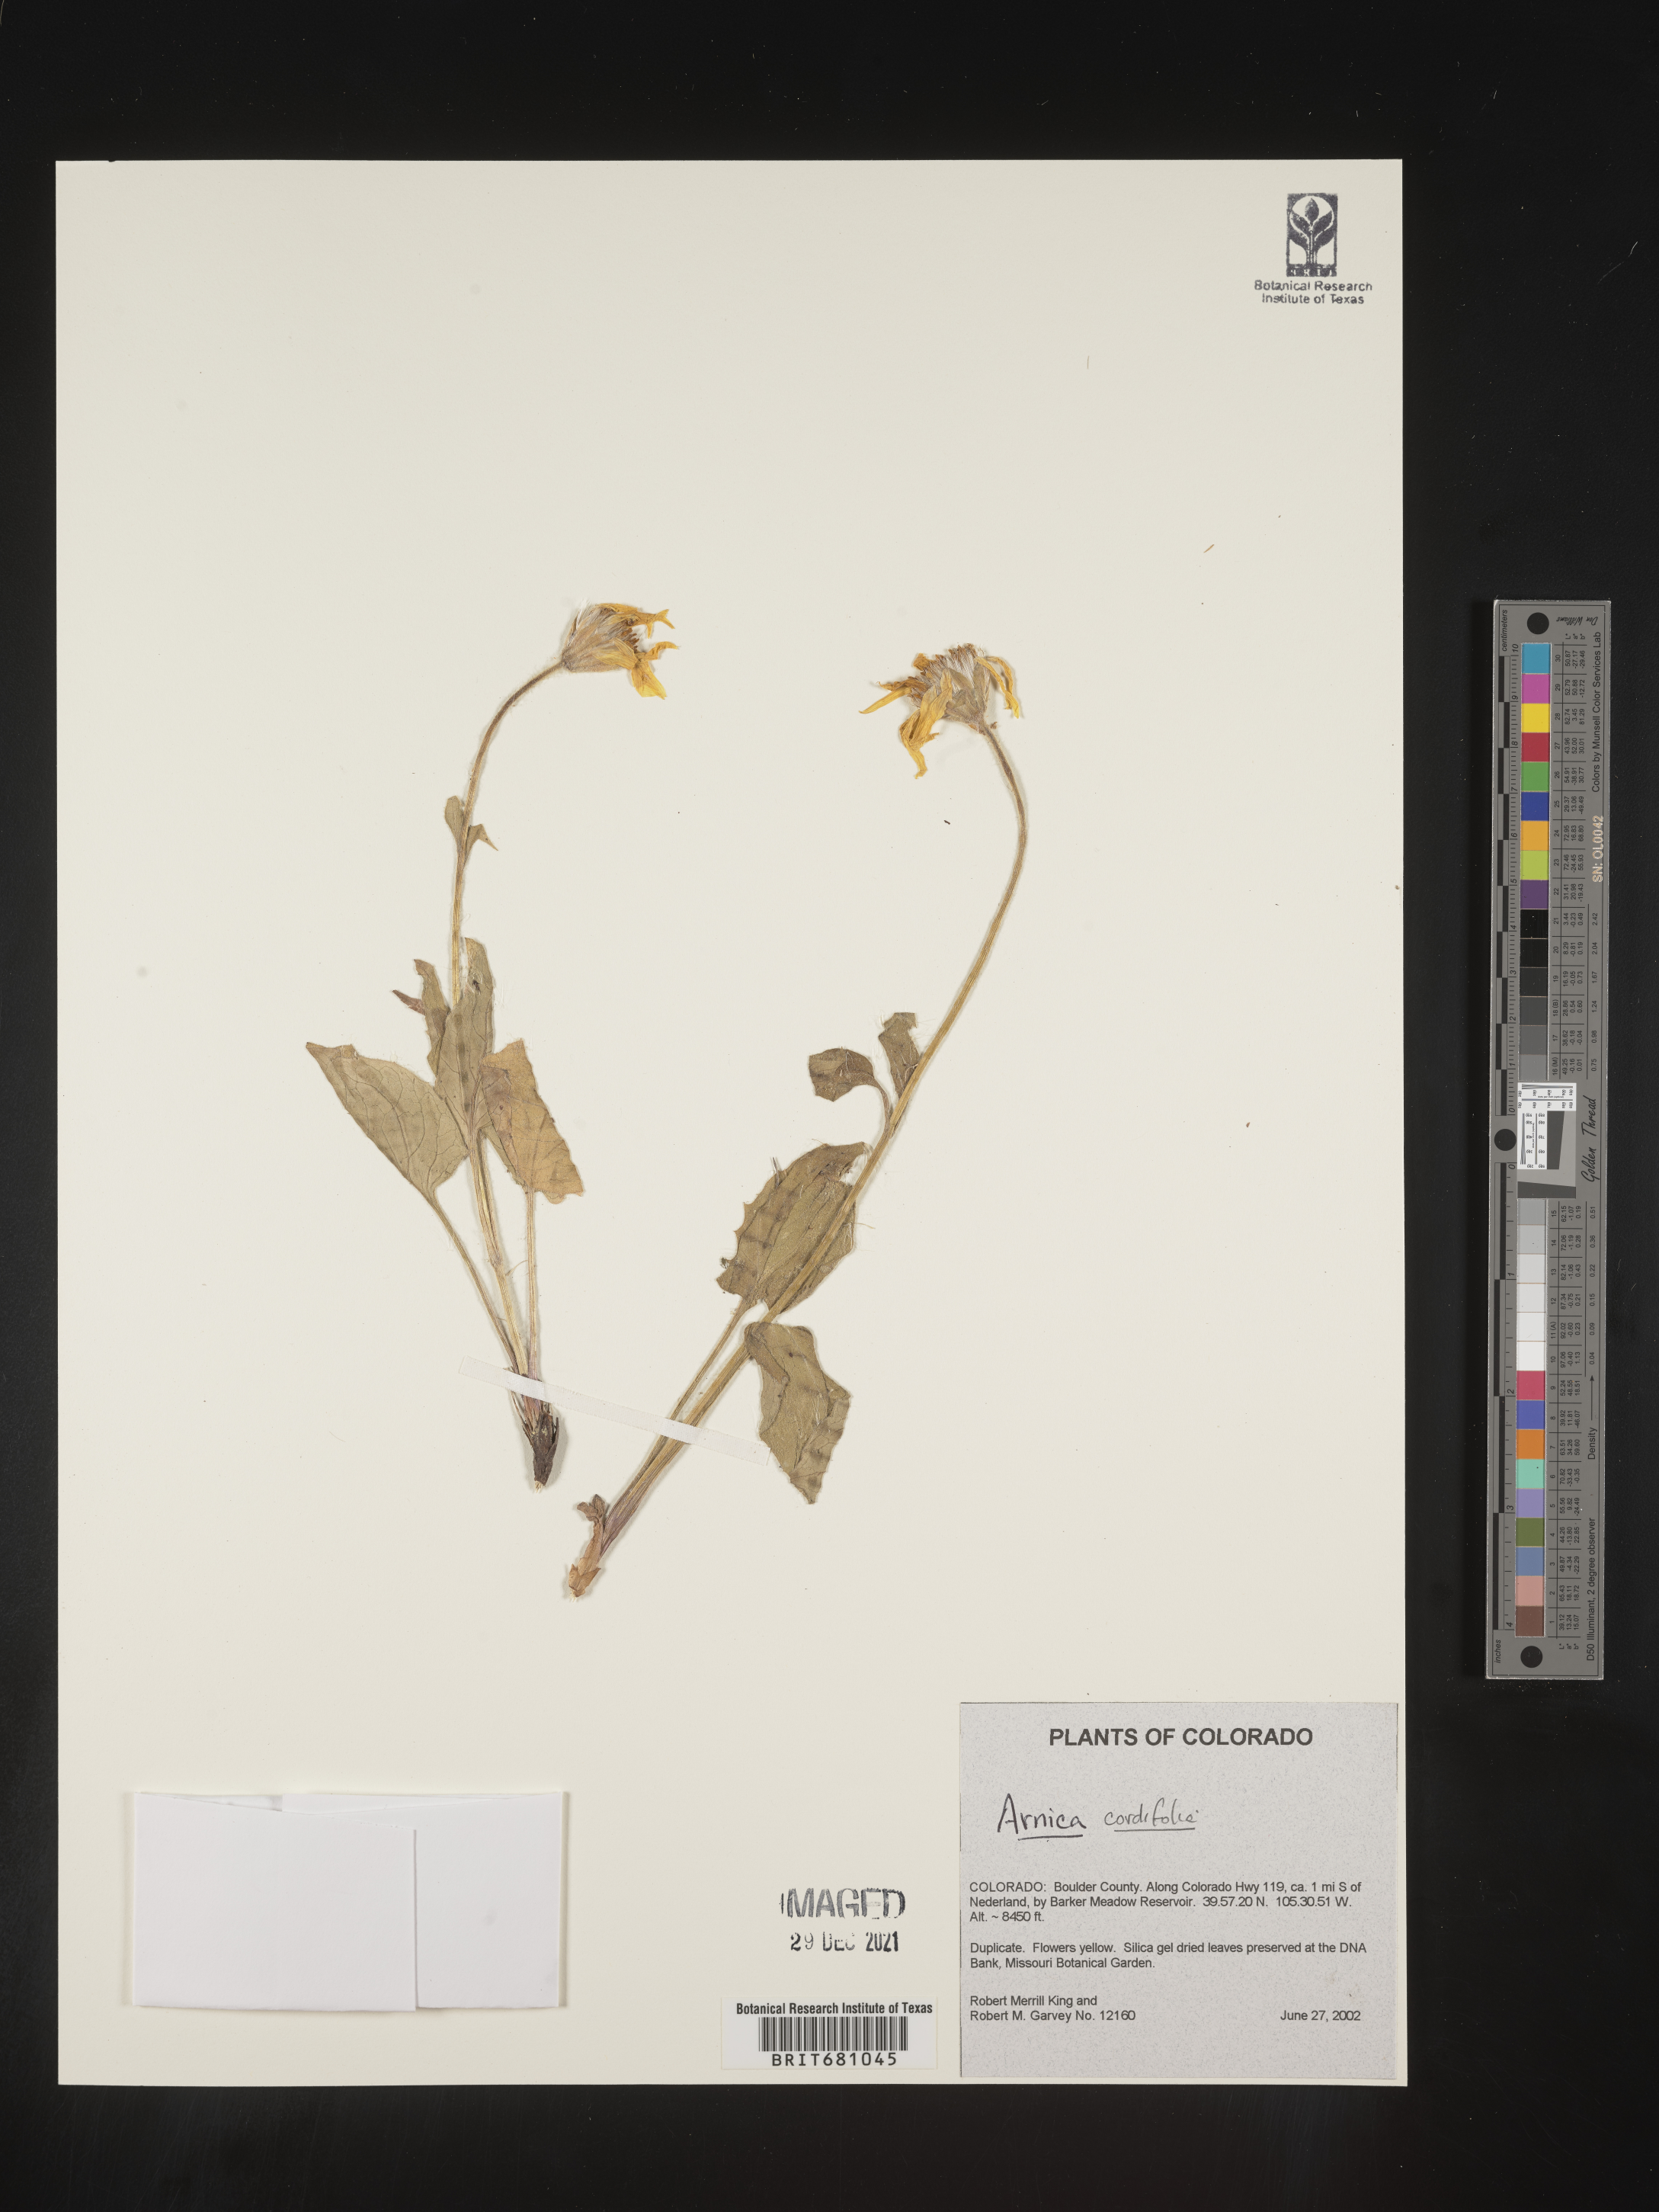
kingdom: Plantae
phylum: Tracheophyta
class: Magnoliopsida
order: Asterales
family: Asteraceae
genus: Arnica
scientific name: Arnica cordifolia
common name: Heart-leaf arnica
